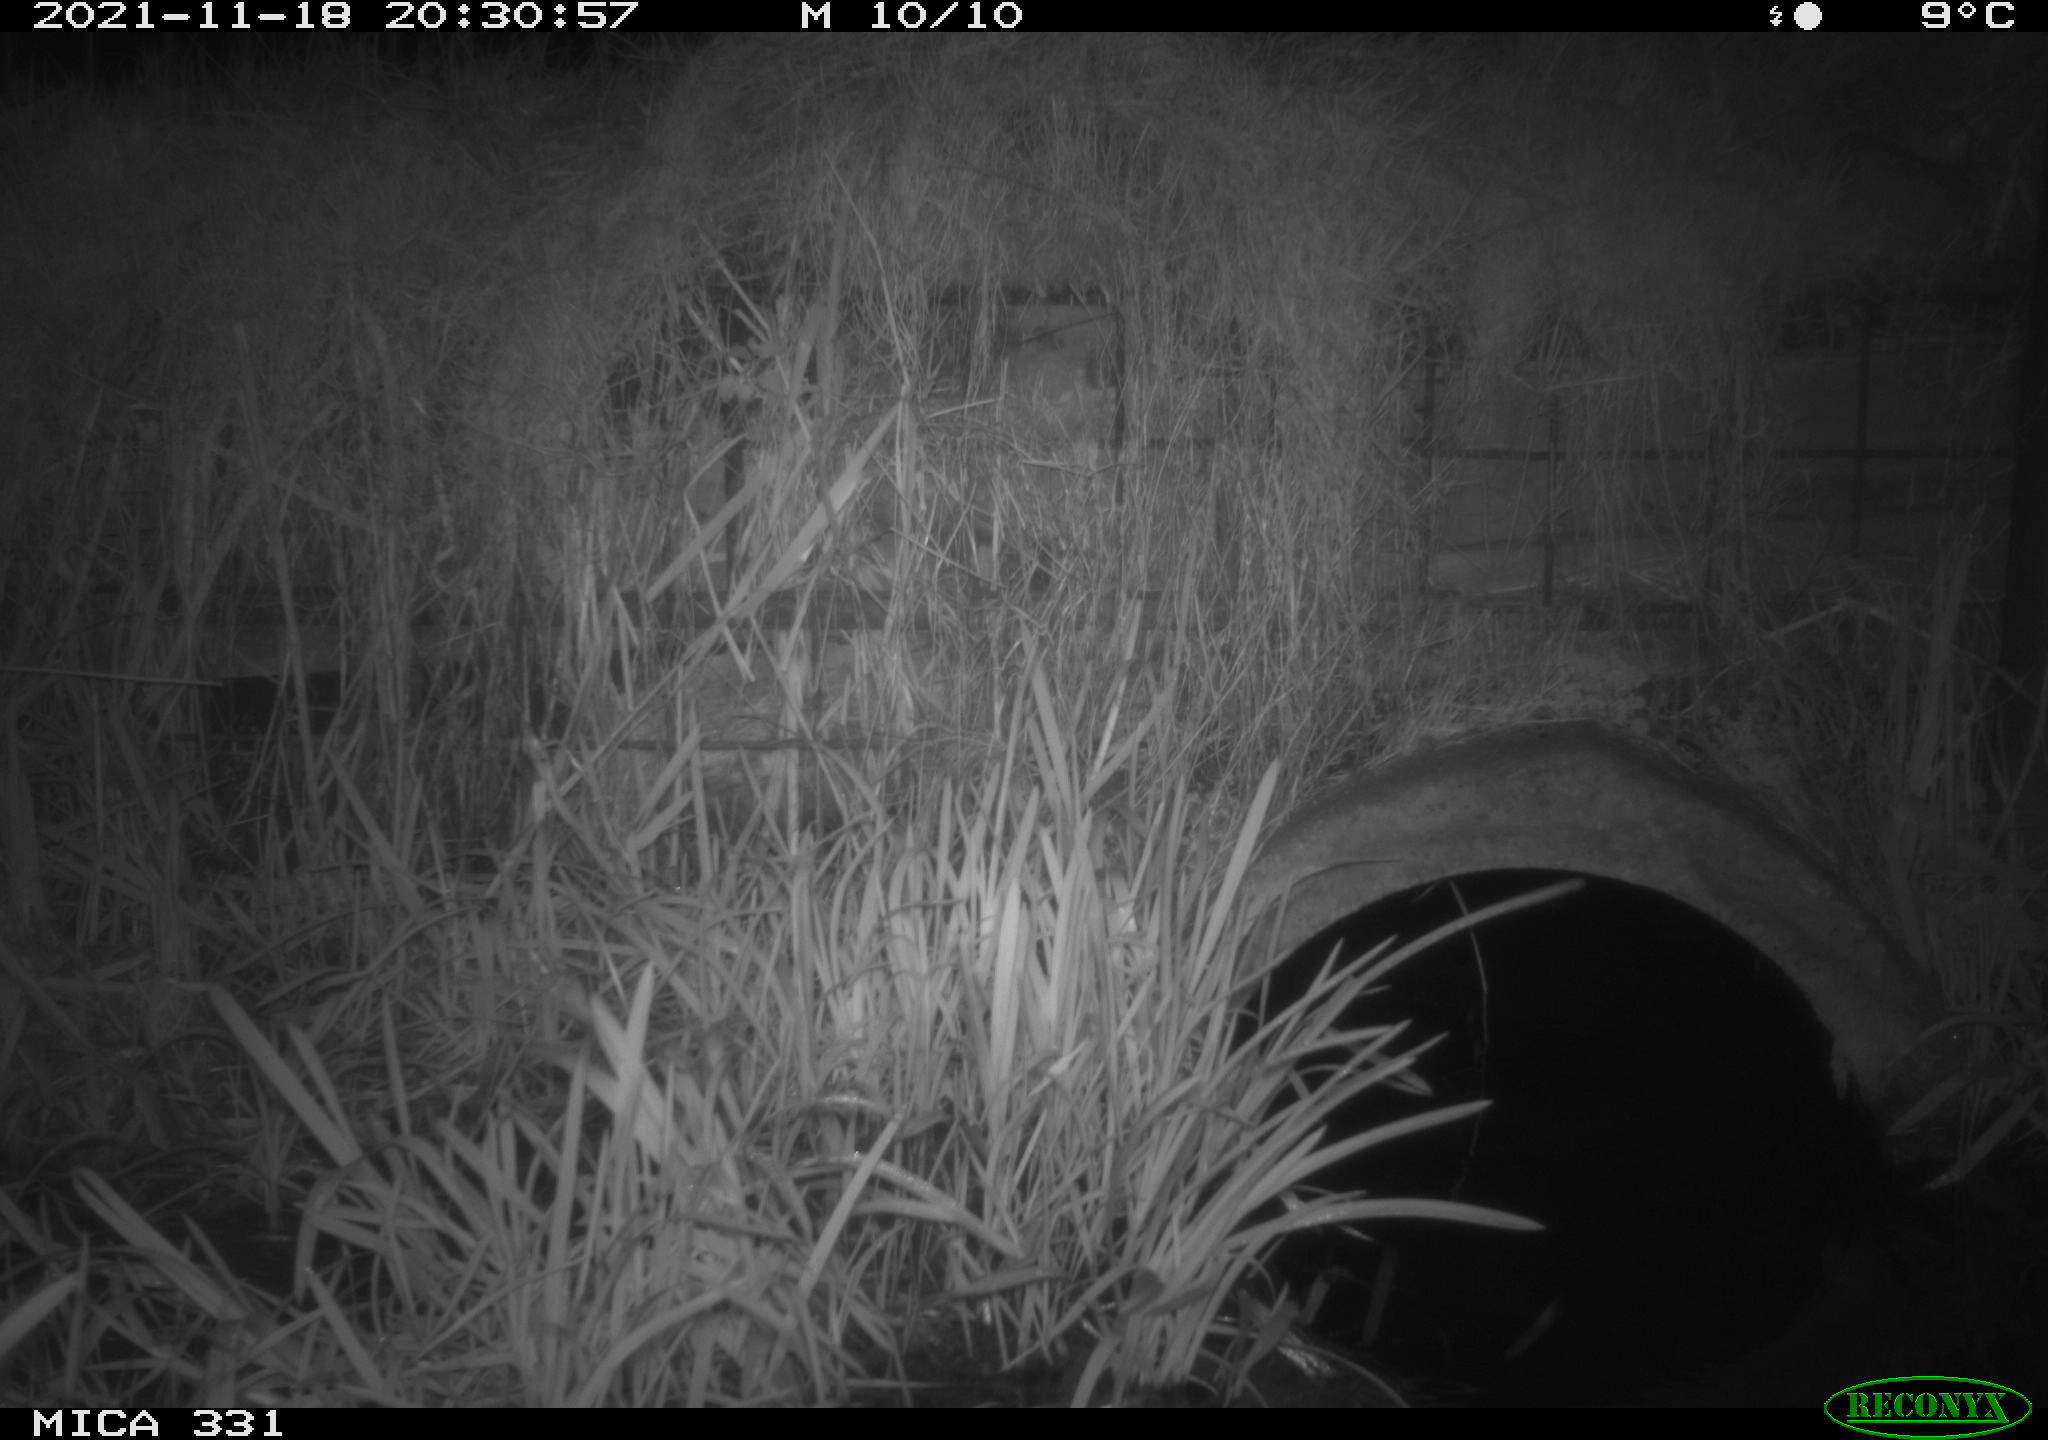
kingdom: Animalia
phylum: Chordata
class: Mammalia
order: Carnivora
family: Canidae
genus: Vulpes
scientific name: Vulpes vulpes
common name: Red fox
